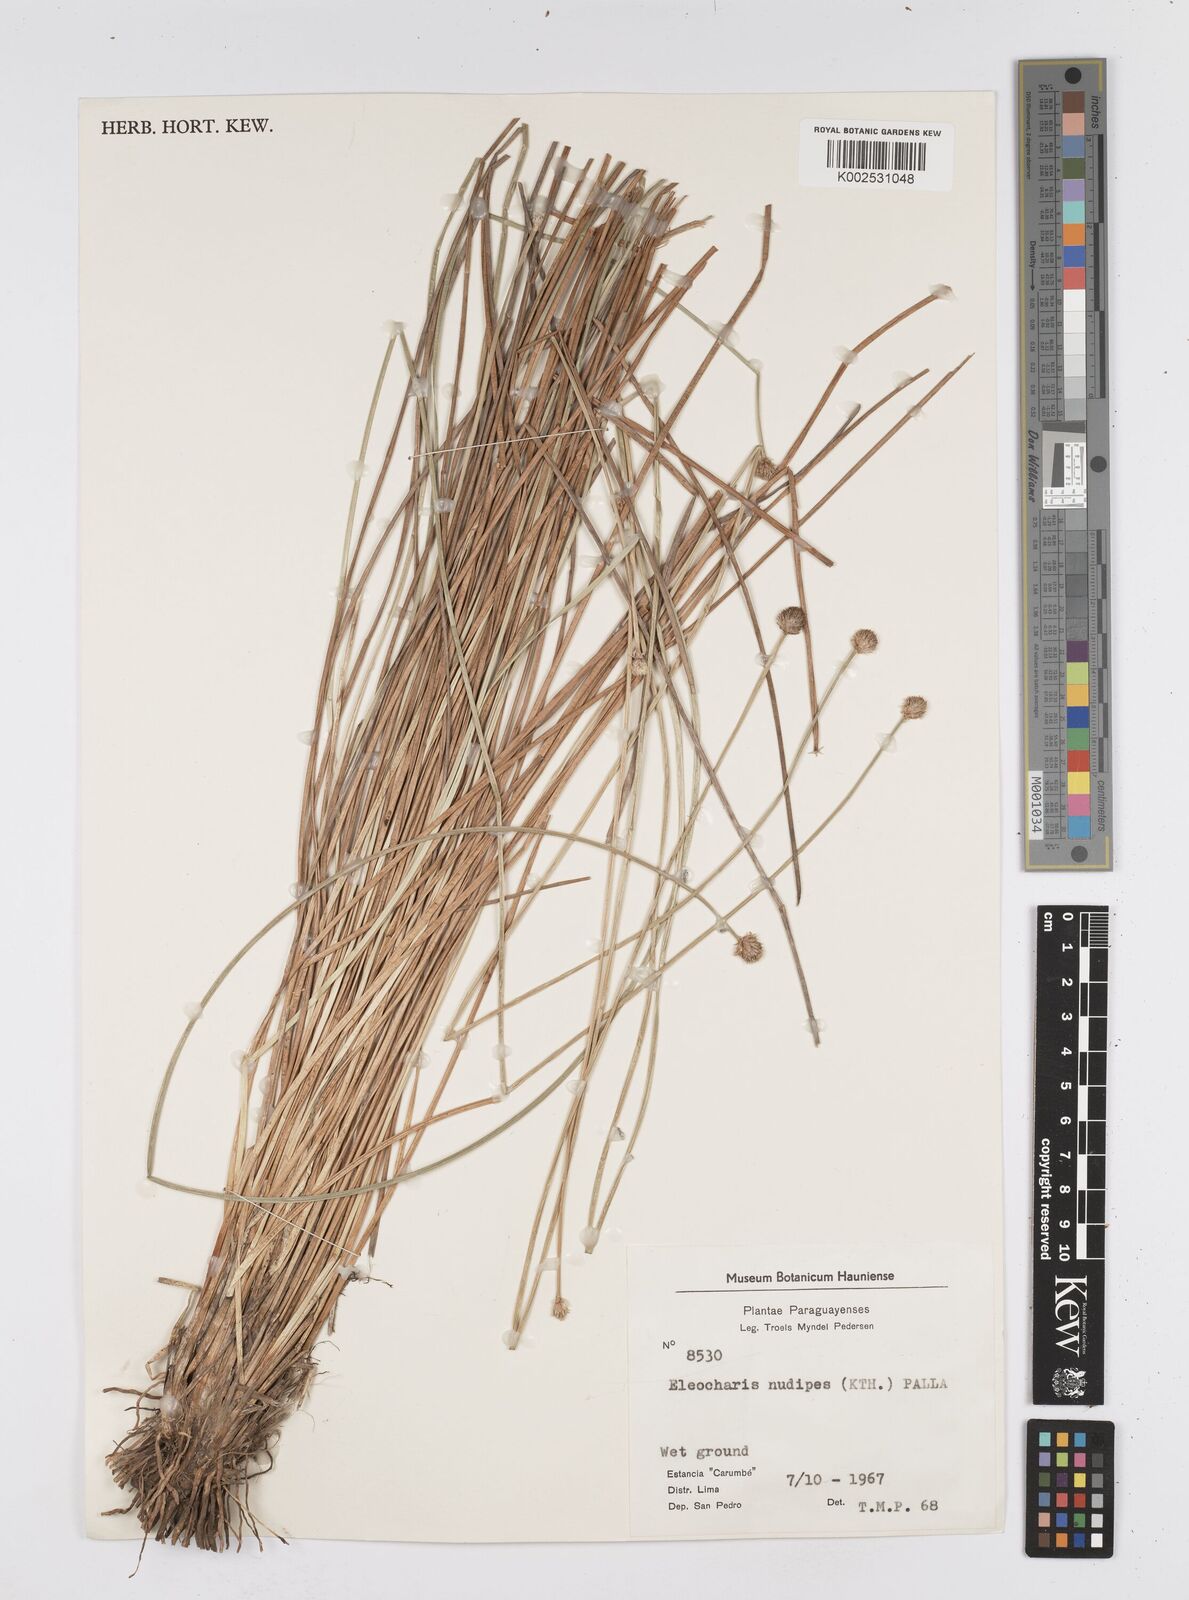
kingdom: Plantae
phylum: Tracheophyta
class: Liliopsida
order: Poales
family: Cyperaceae
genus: Eleocharis
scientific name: Eleocharis nudipes
